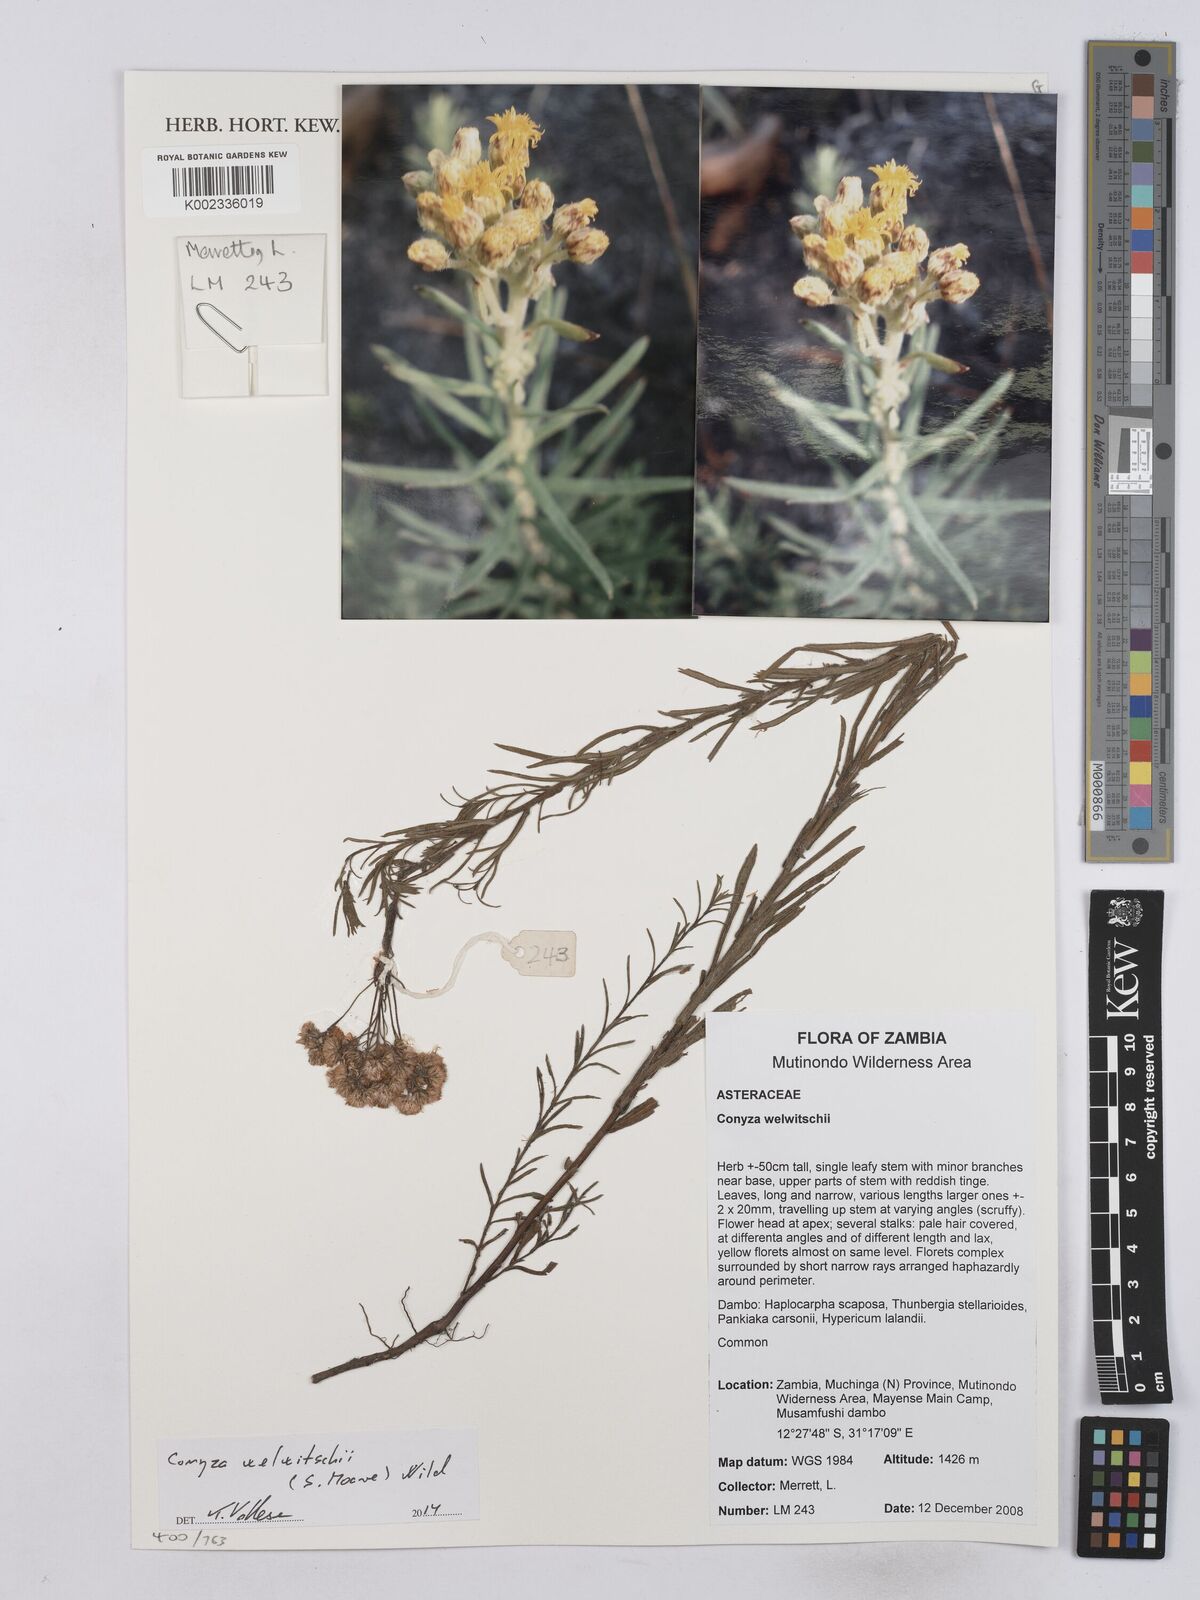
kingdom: Plantae
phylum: Tracheophyta
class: Magnoliopsida
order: Asterales
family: Asteraceae
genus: Nidorella
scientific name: Nidorella welwitschii
